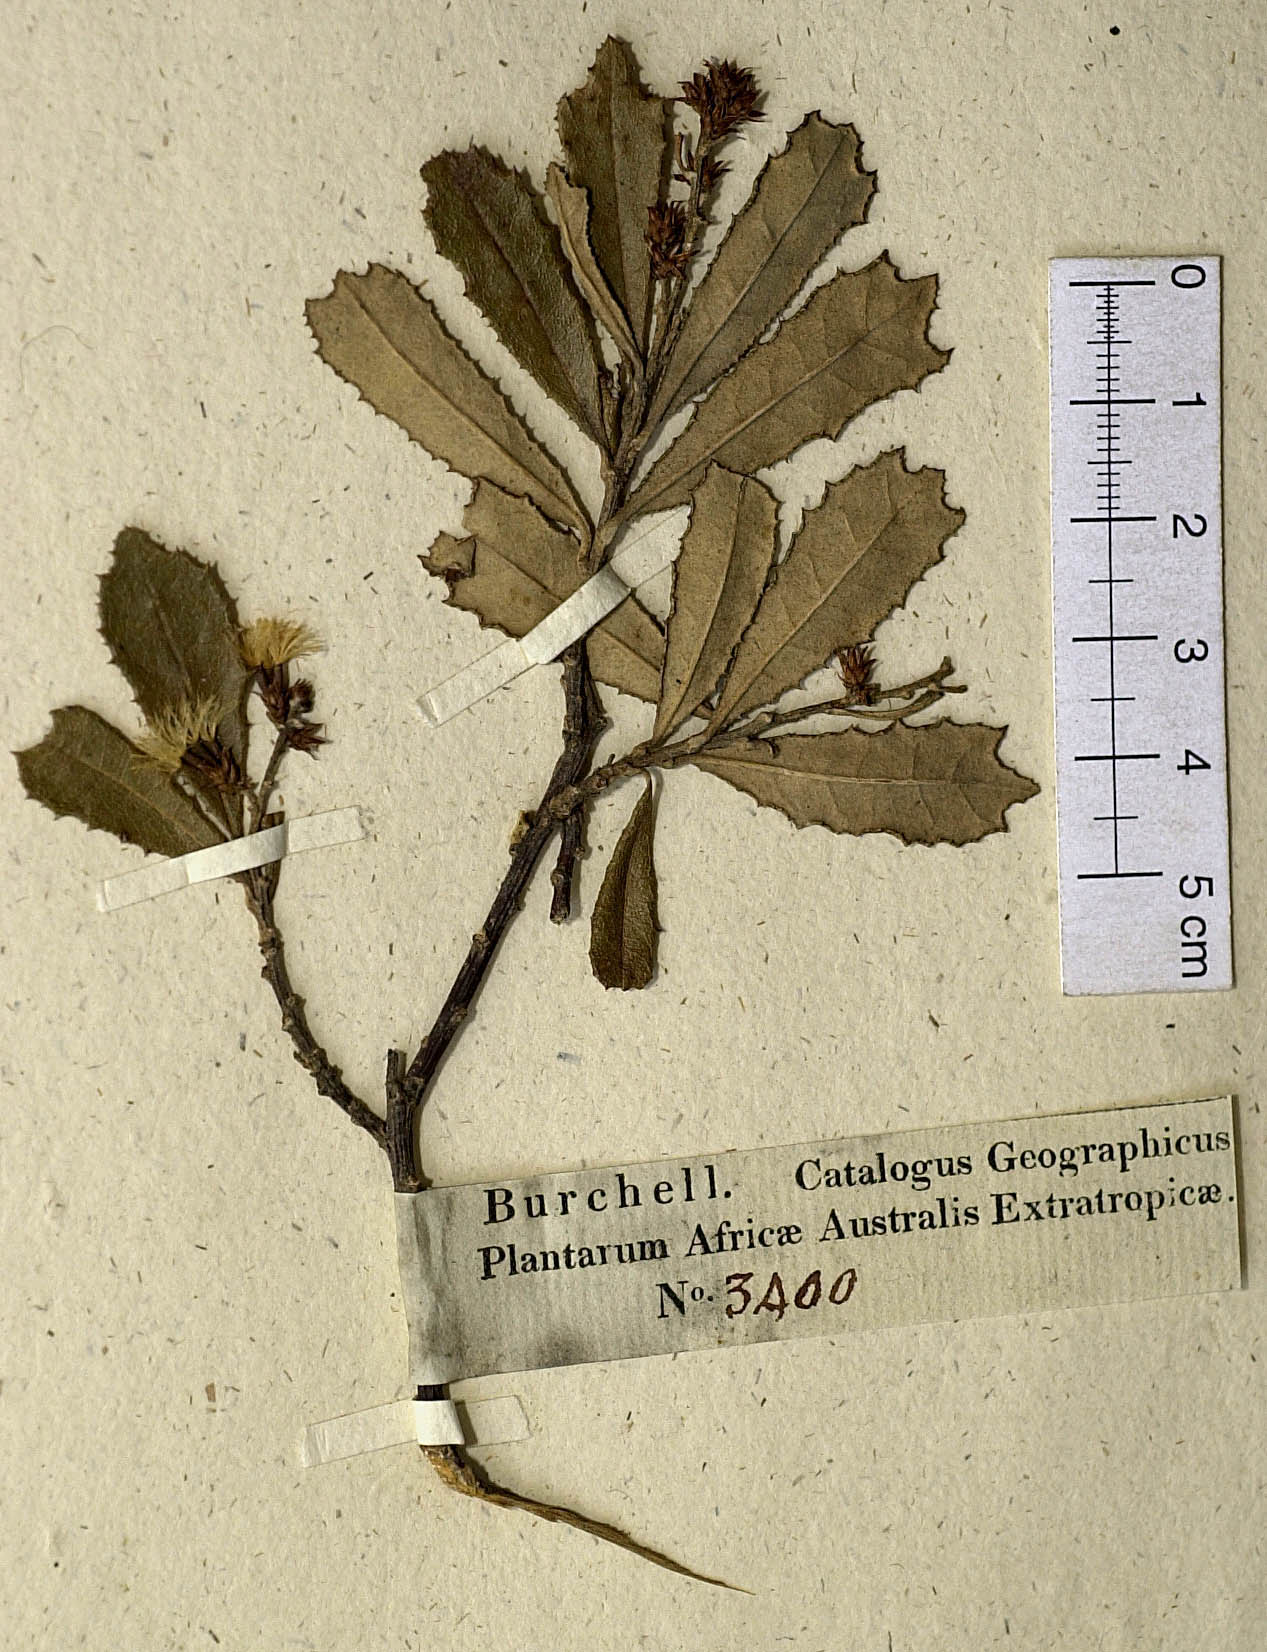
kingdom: Plantae
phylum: Tracheophyta
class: Magnoliopsida
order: Asterales
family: Asteraceae
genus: Brachylaena
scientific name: Brachylaena glabra
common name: Malabar silver-oak
